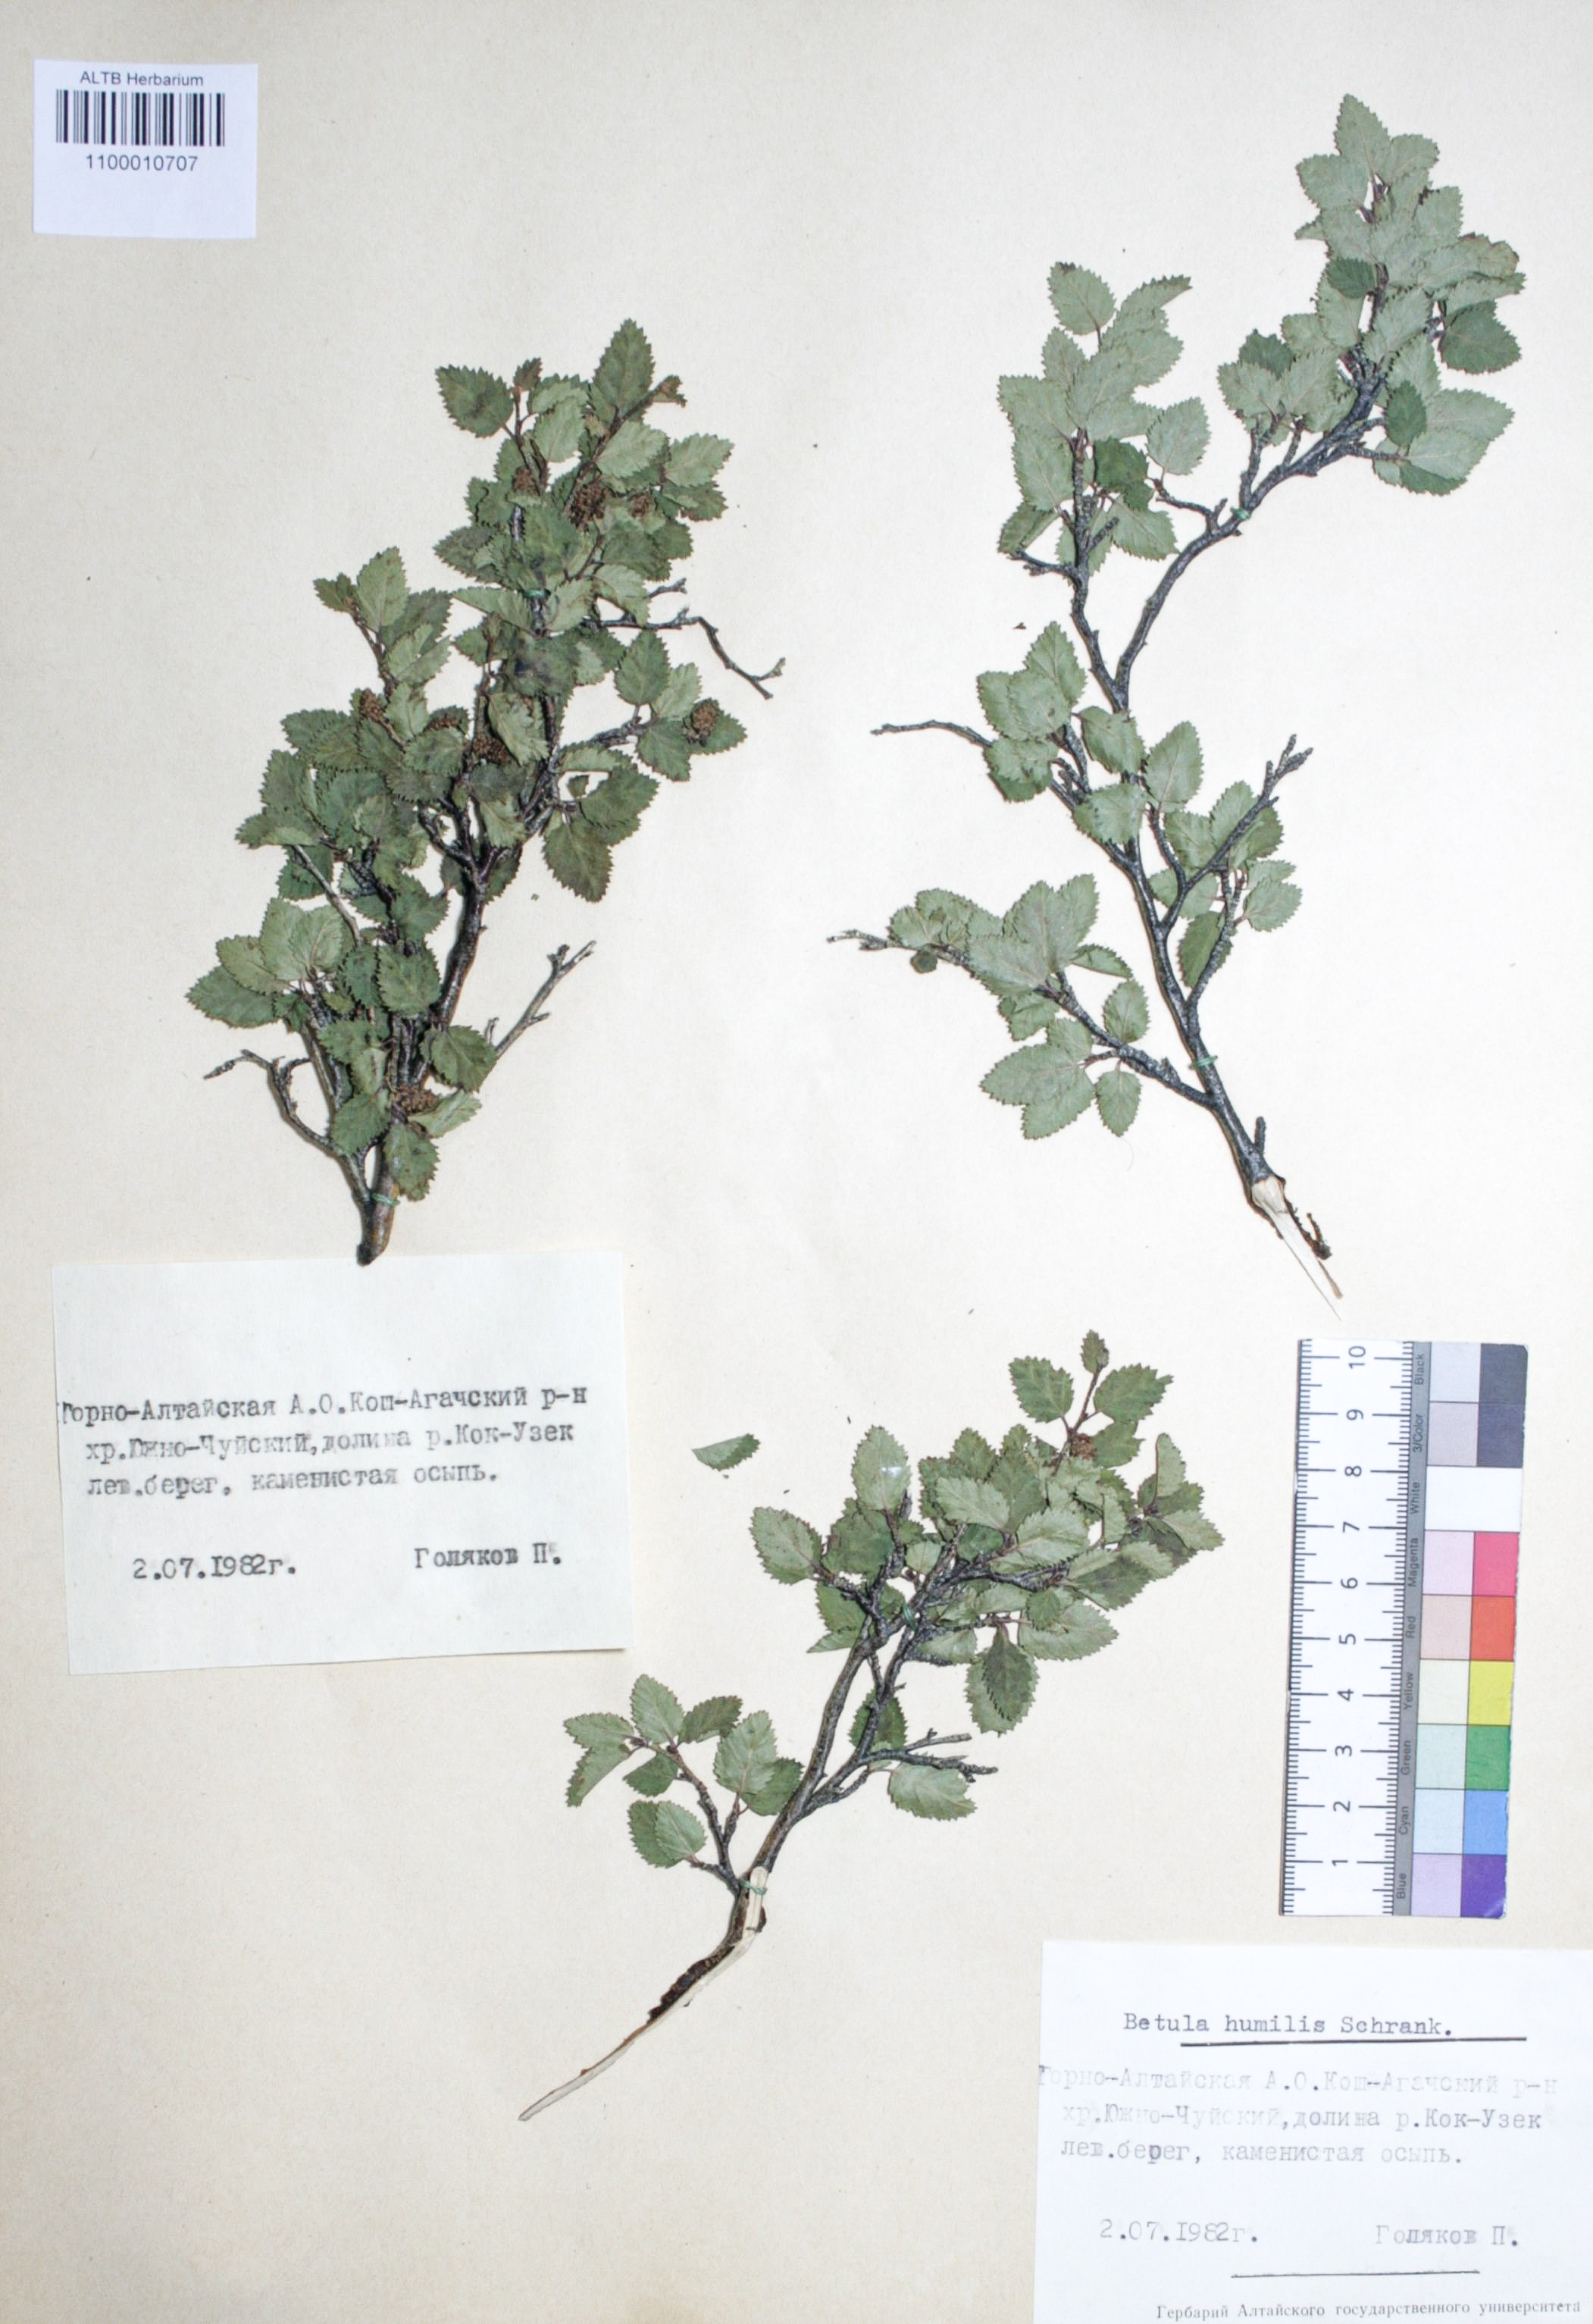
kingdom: Plantae
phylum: Tracheophyta
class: Magnoliopsida
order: Fagales
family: Betulaceae
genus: Betula
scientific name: Betula humilis
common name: Shrubby birch
